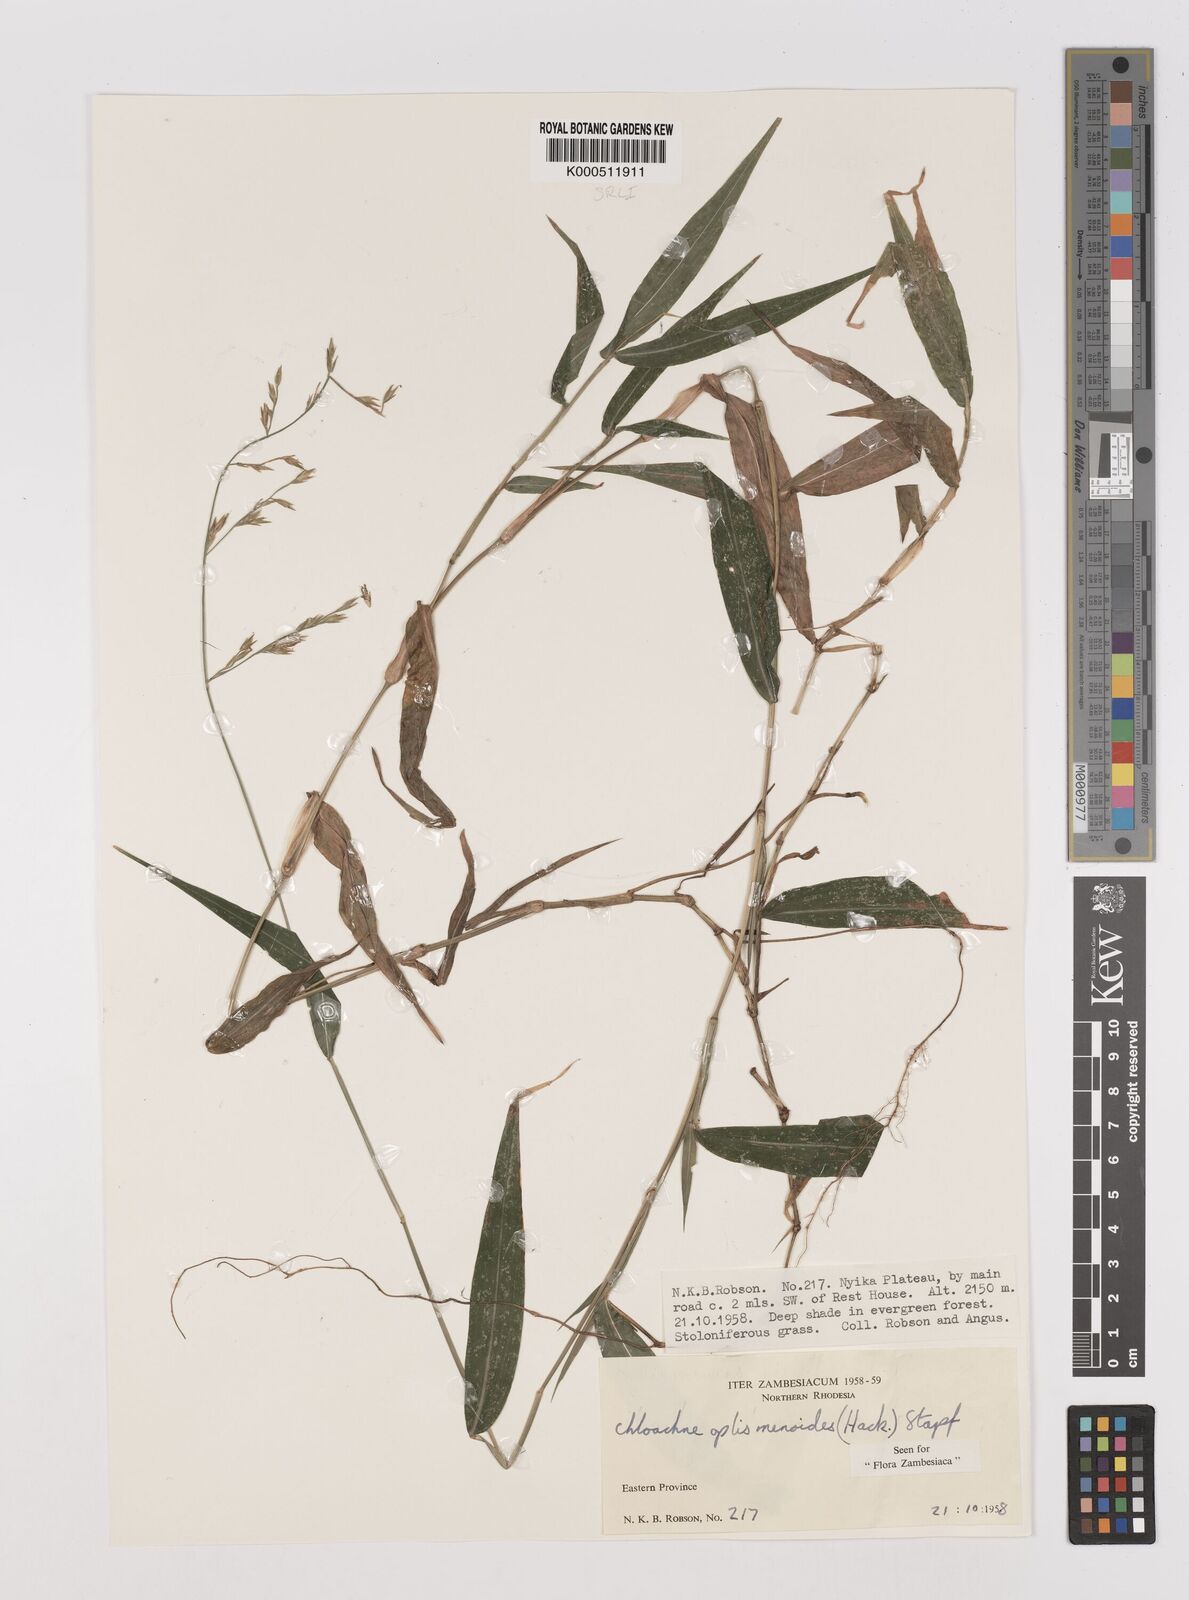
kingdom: Plantae
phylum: Tracheophyta
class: Liliopsida
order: Poales
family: Poaceae
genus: Poecilostachys
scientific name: Poecilostachys oplismenoides
